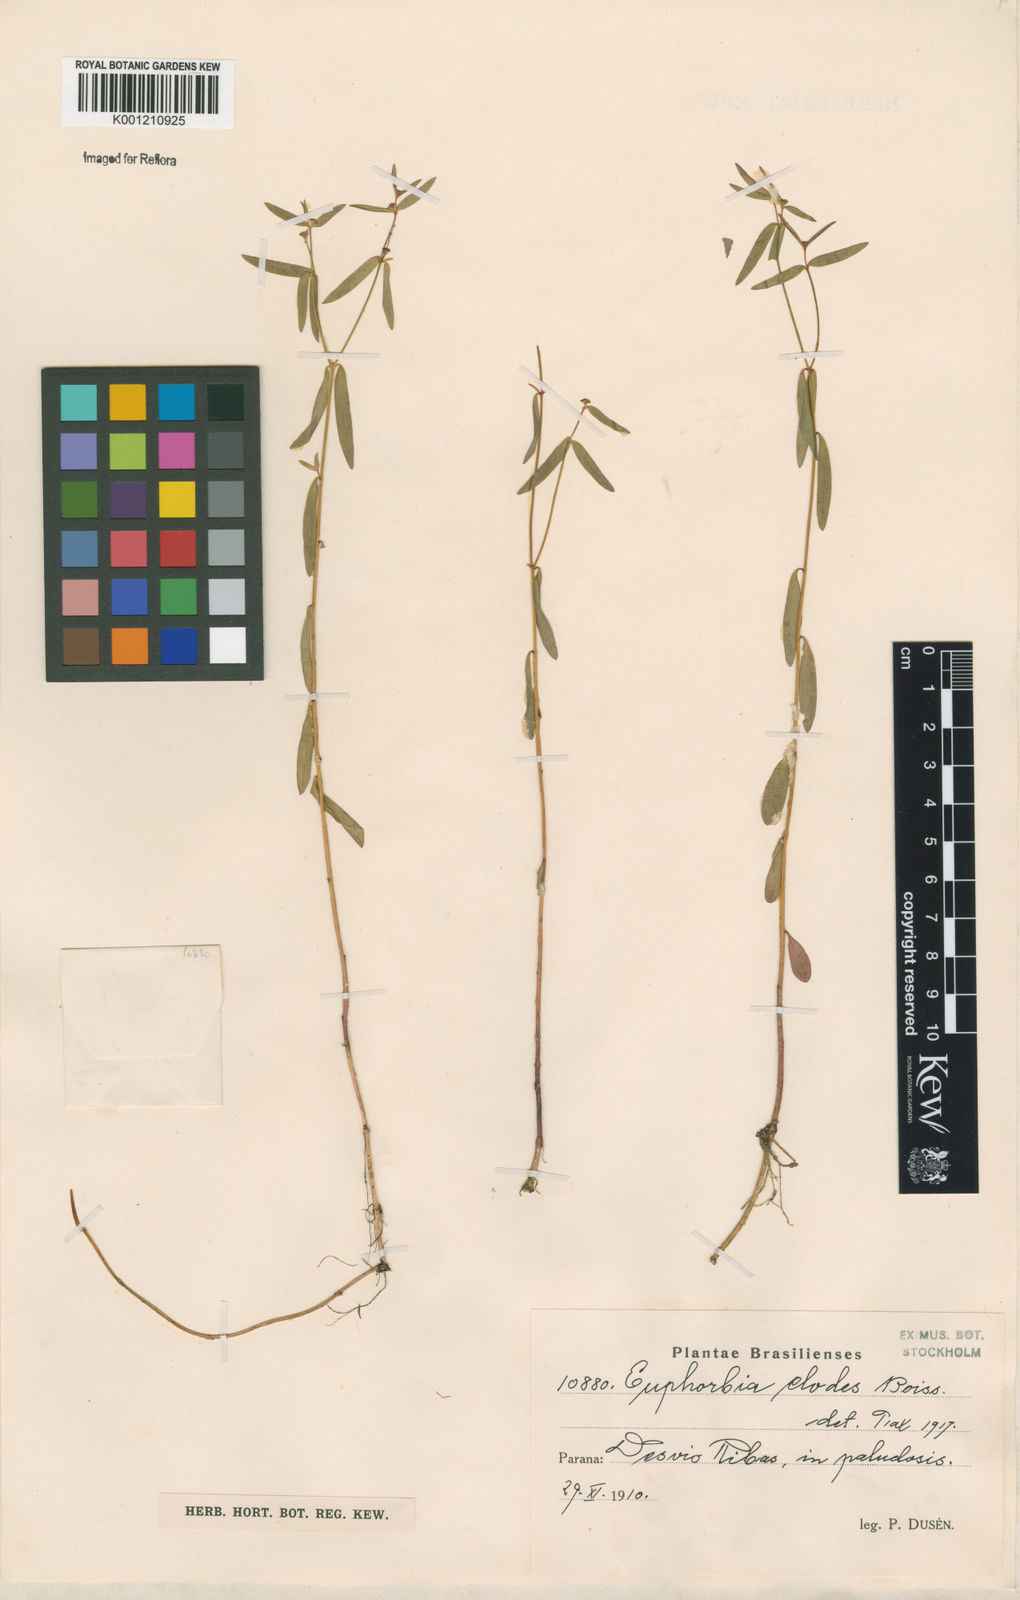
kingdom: Plantae
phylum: Tracheophyta
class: Magnoliopsida
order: Malpighiales
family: Euphorbiaceae
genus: Euphorbia
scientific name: Euphorbia elodes
